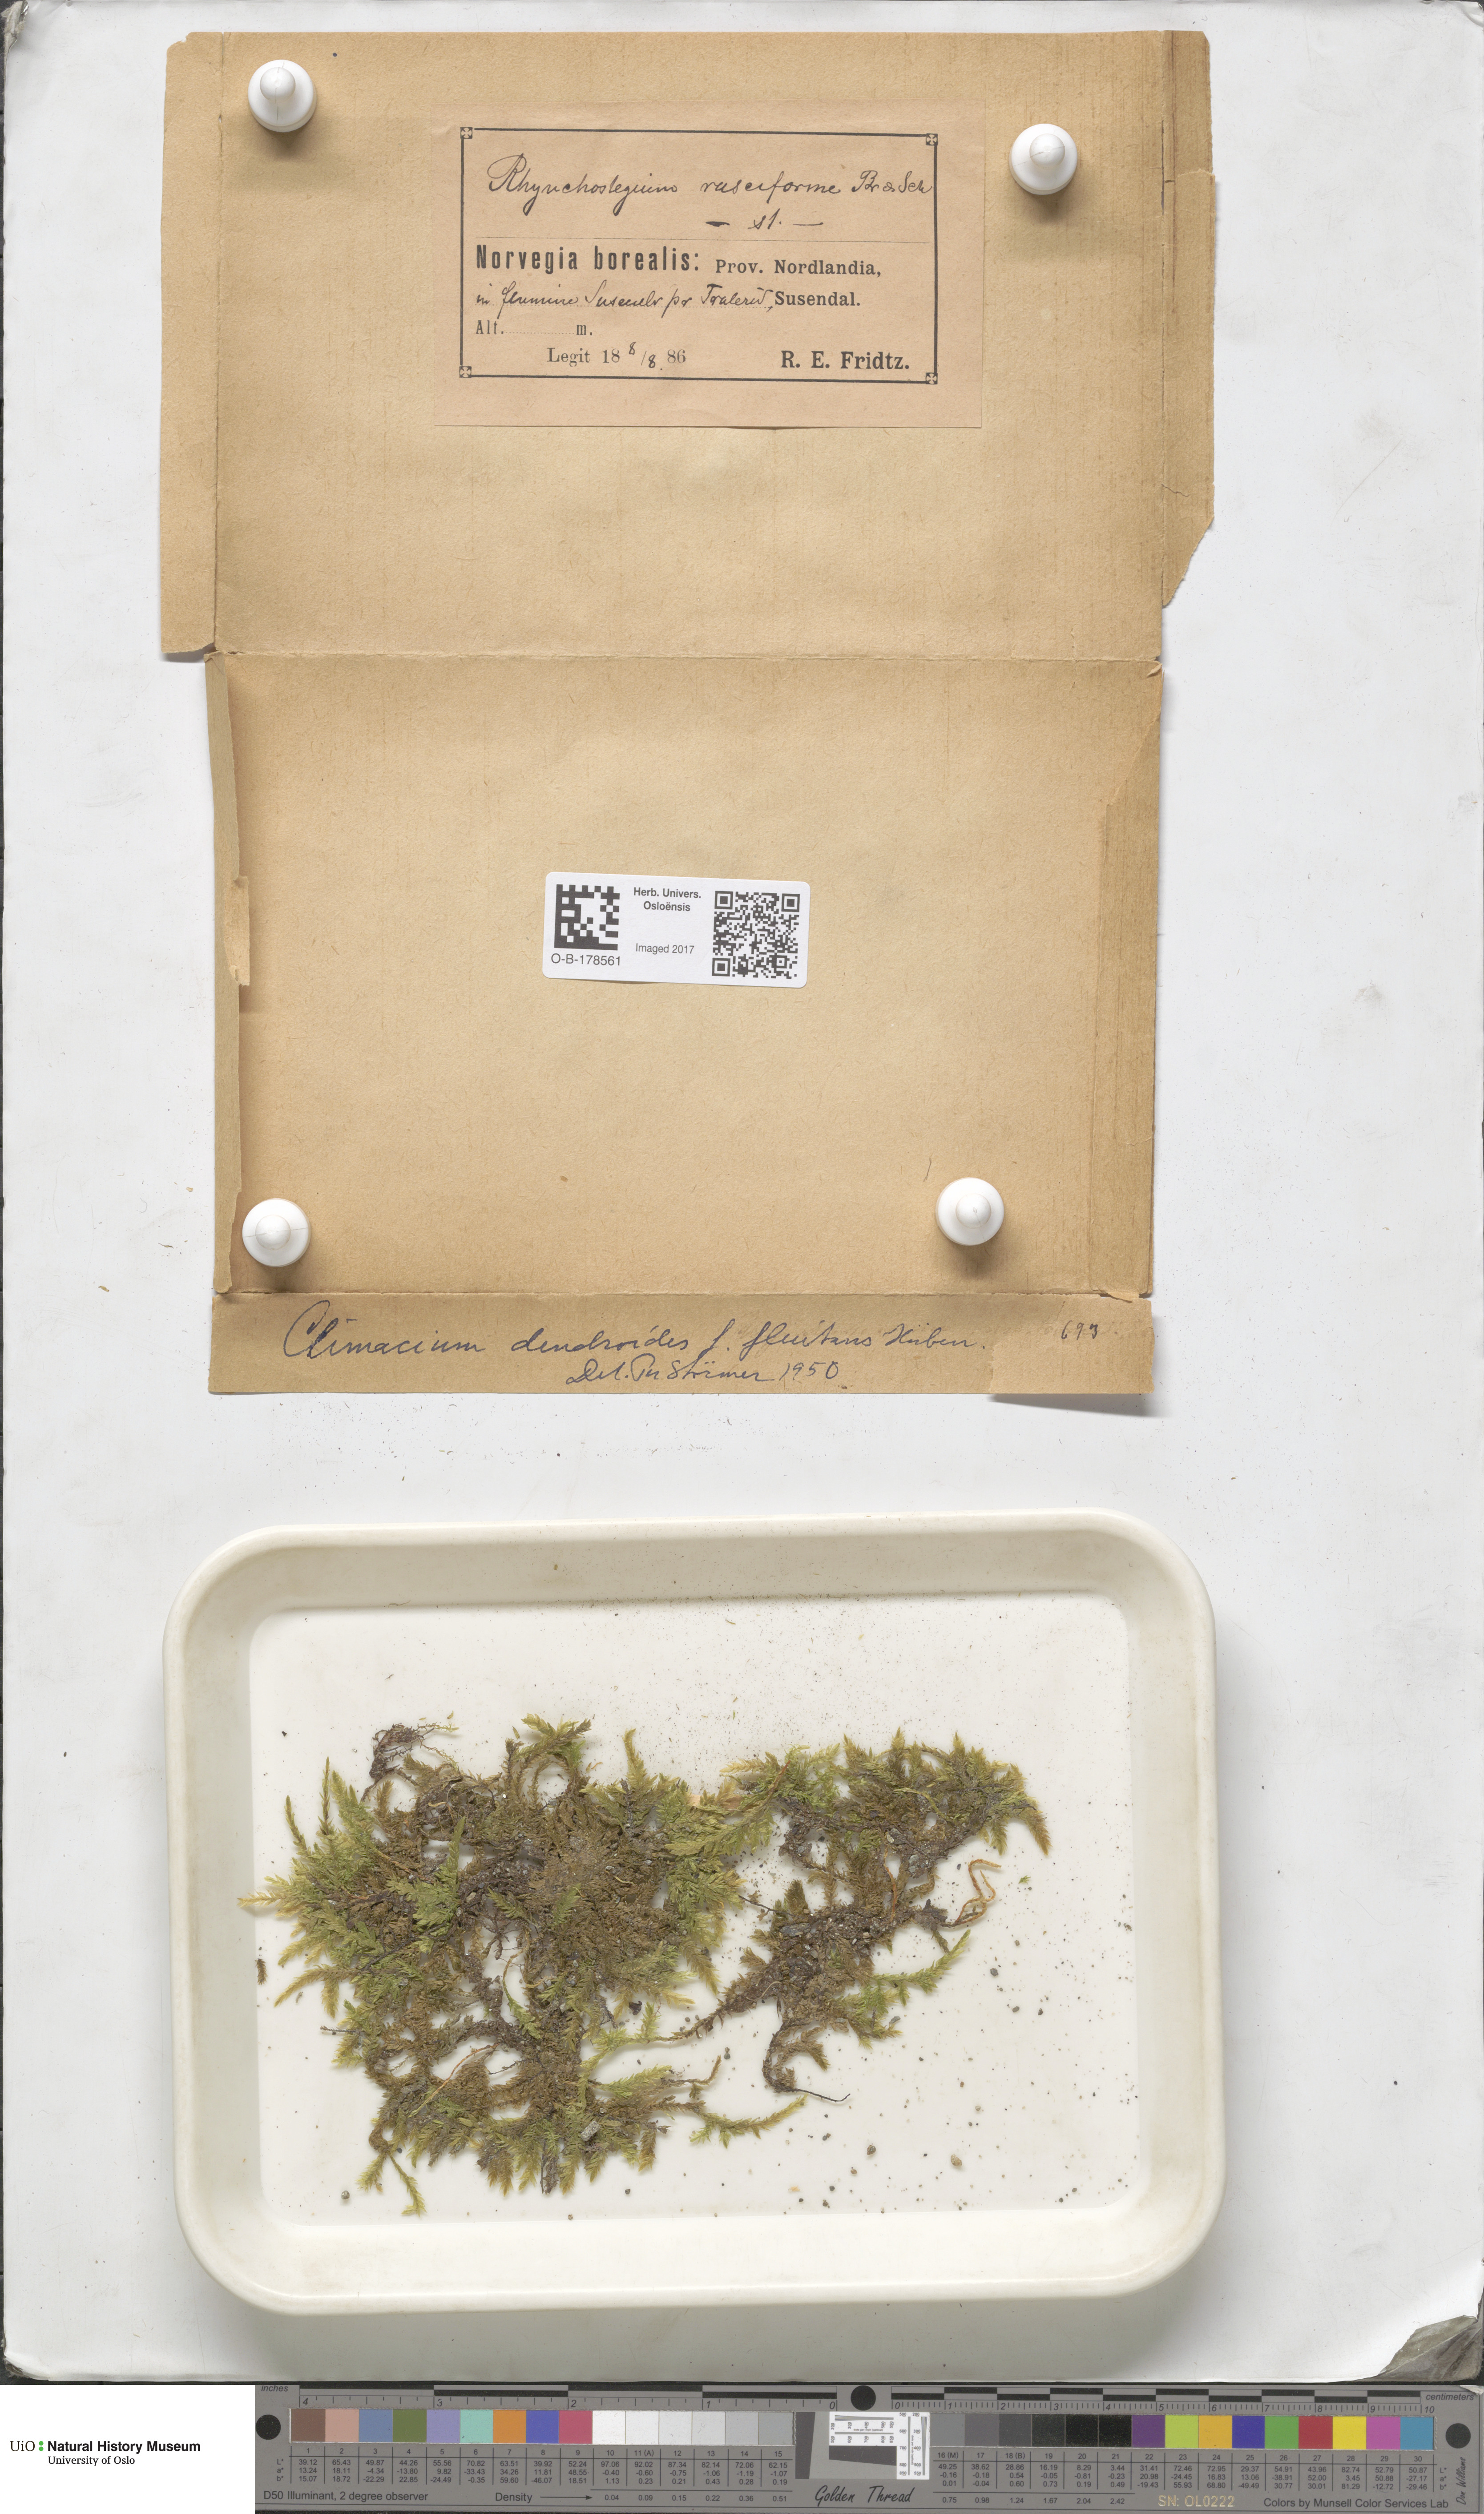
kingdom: Plantae
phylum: Bryophyta
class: Bryopsida
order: Hypnales
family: Climaciaceae
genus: Climacium
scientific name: Climacium dendroides
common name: Northern tree moss
